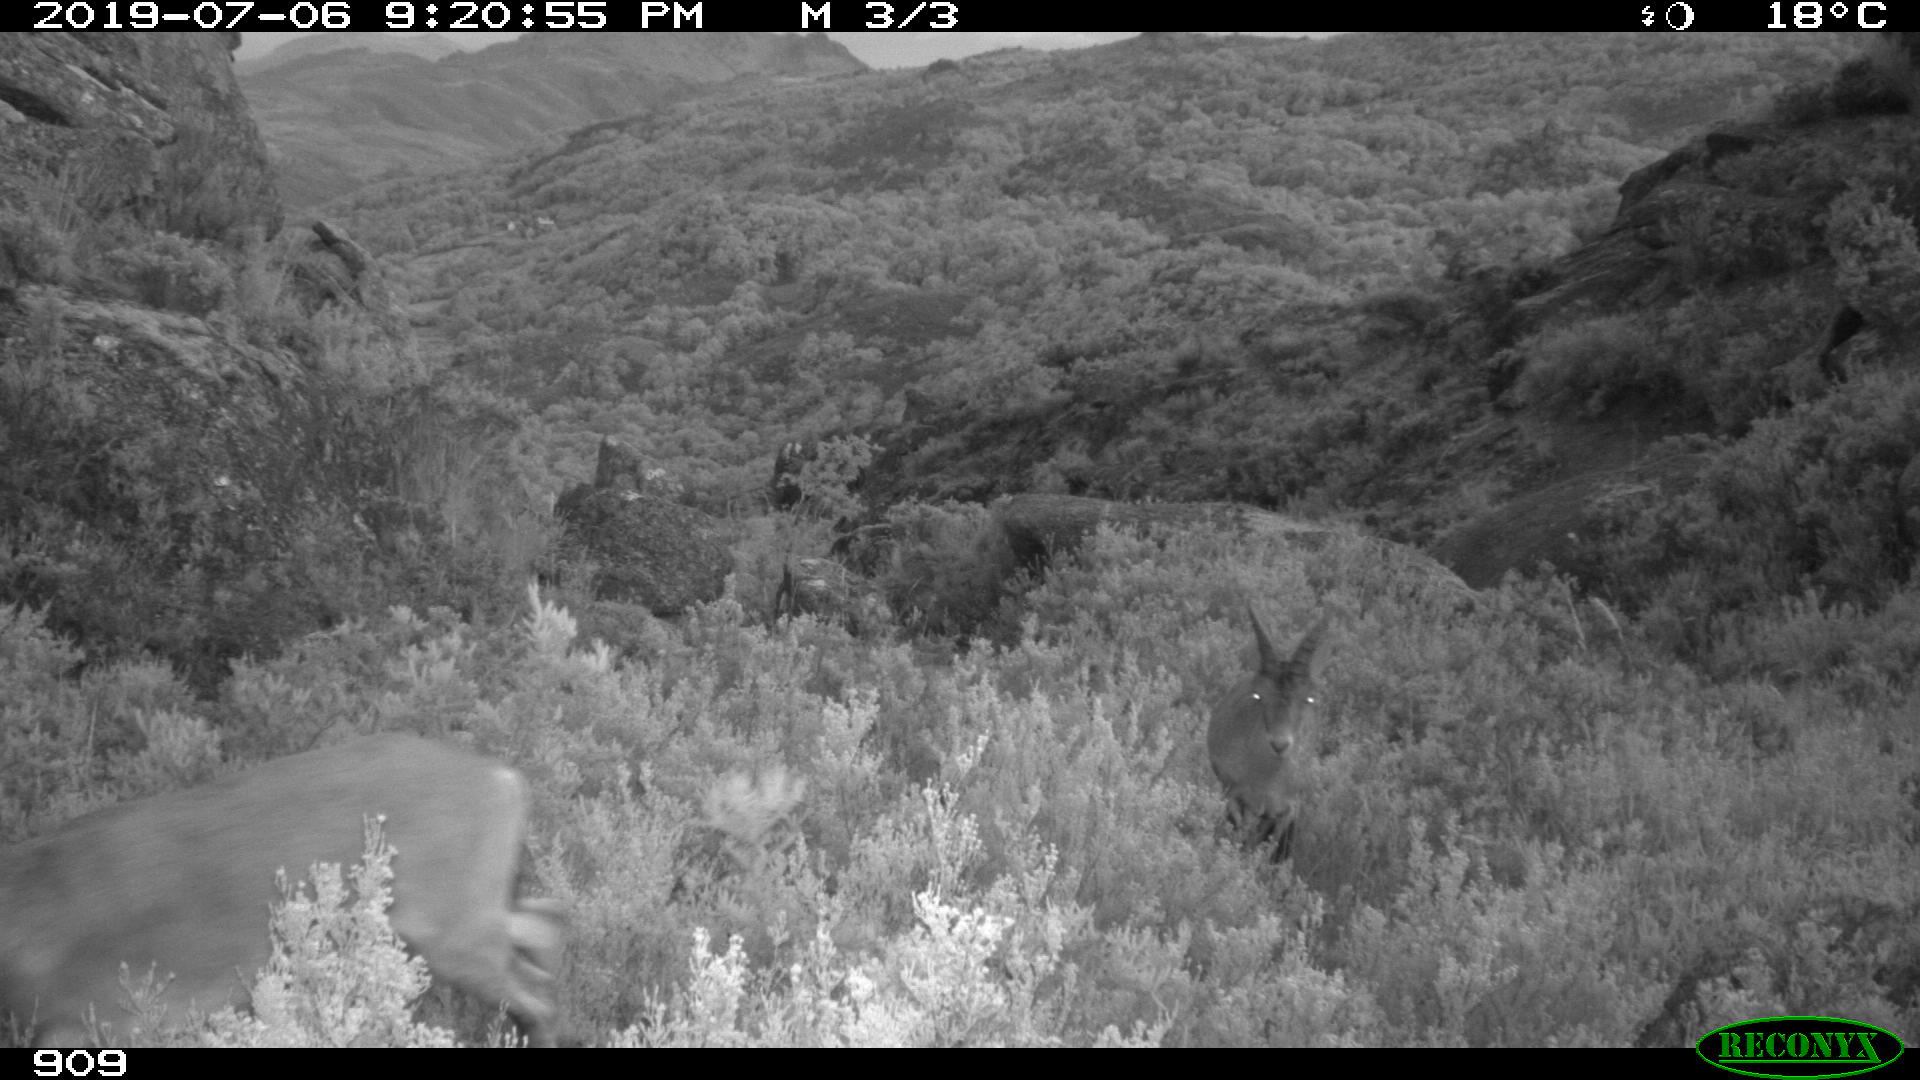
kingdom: Animalia
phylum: Chordata
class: Mammalia
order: Artiodactyla
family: Bovidae
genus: Capra
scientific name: Capra pyrenaica
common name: Spanish ibex
